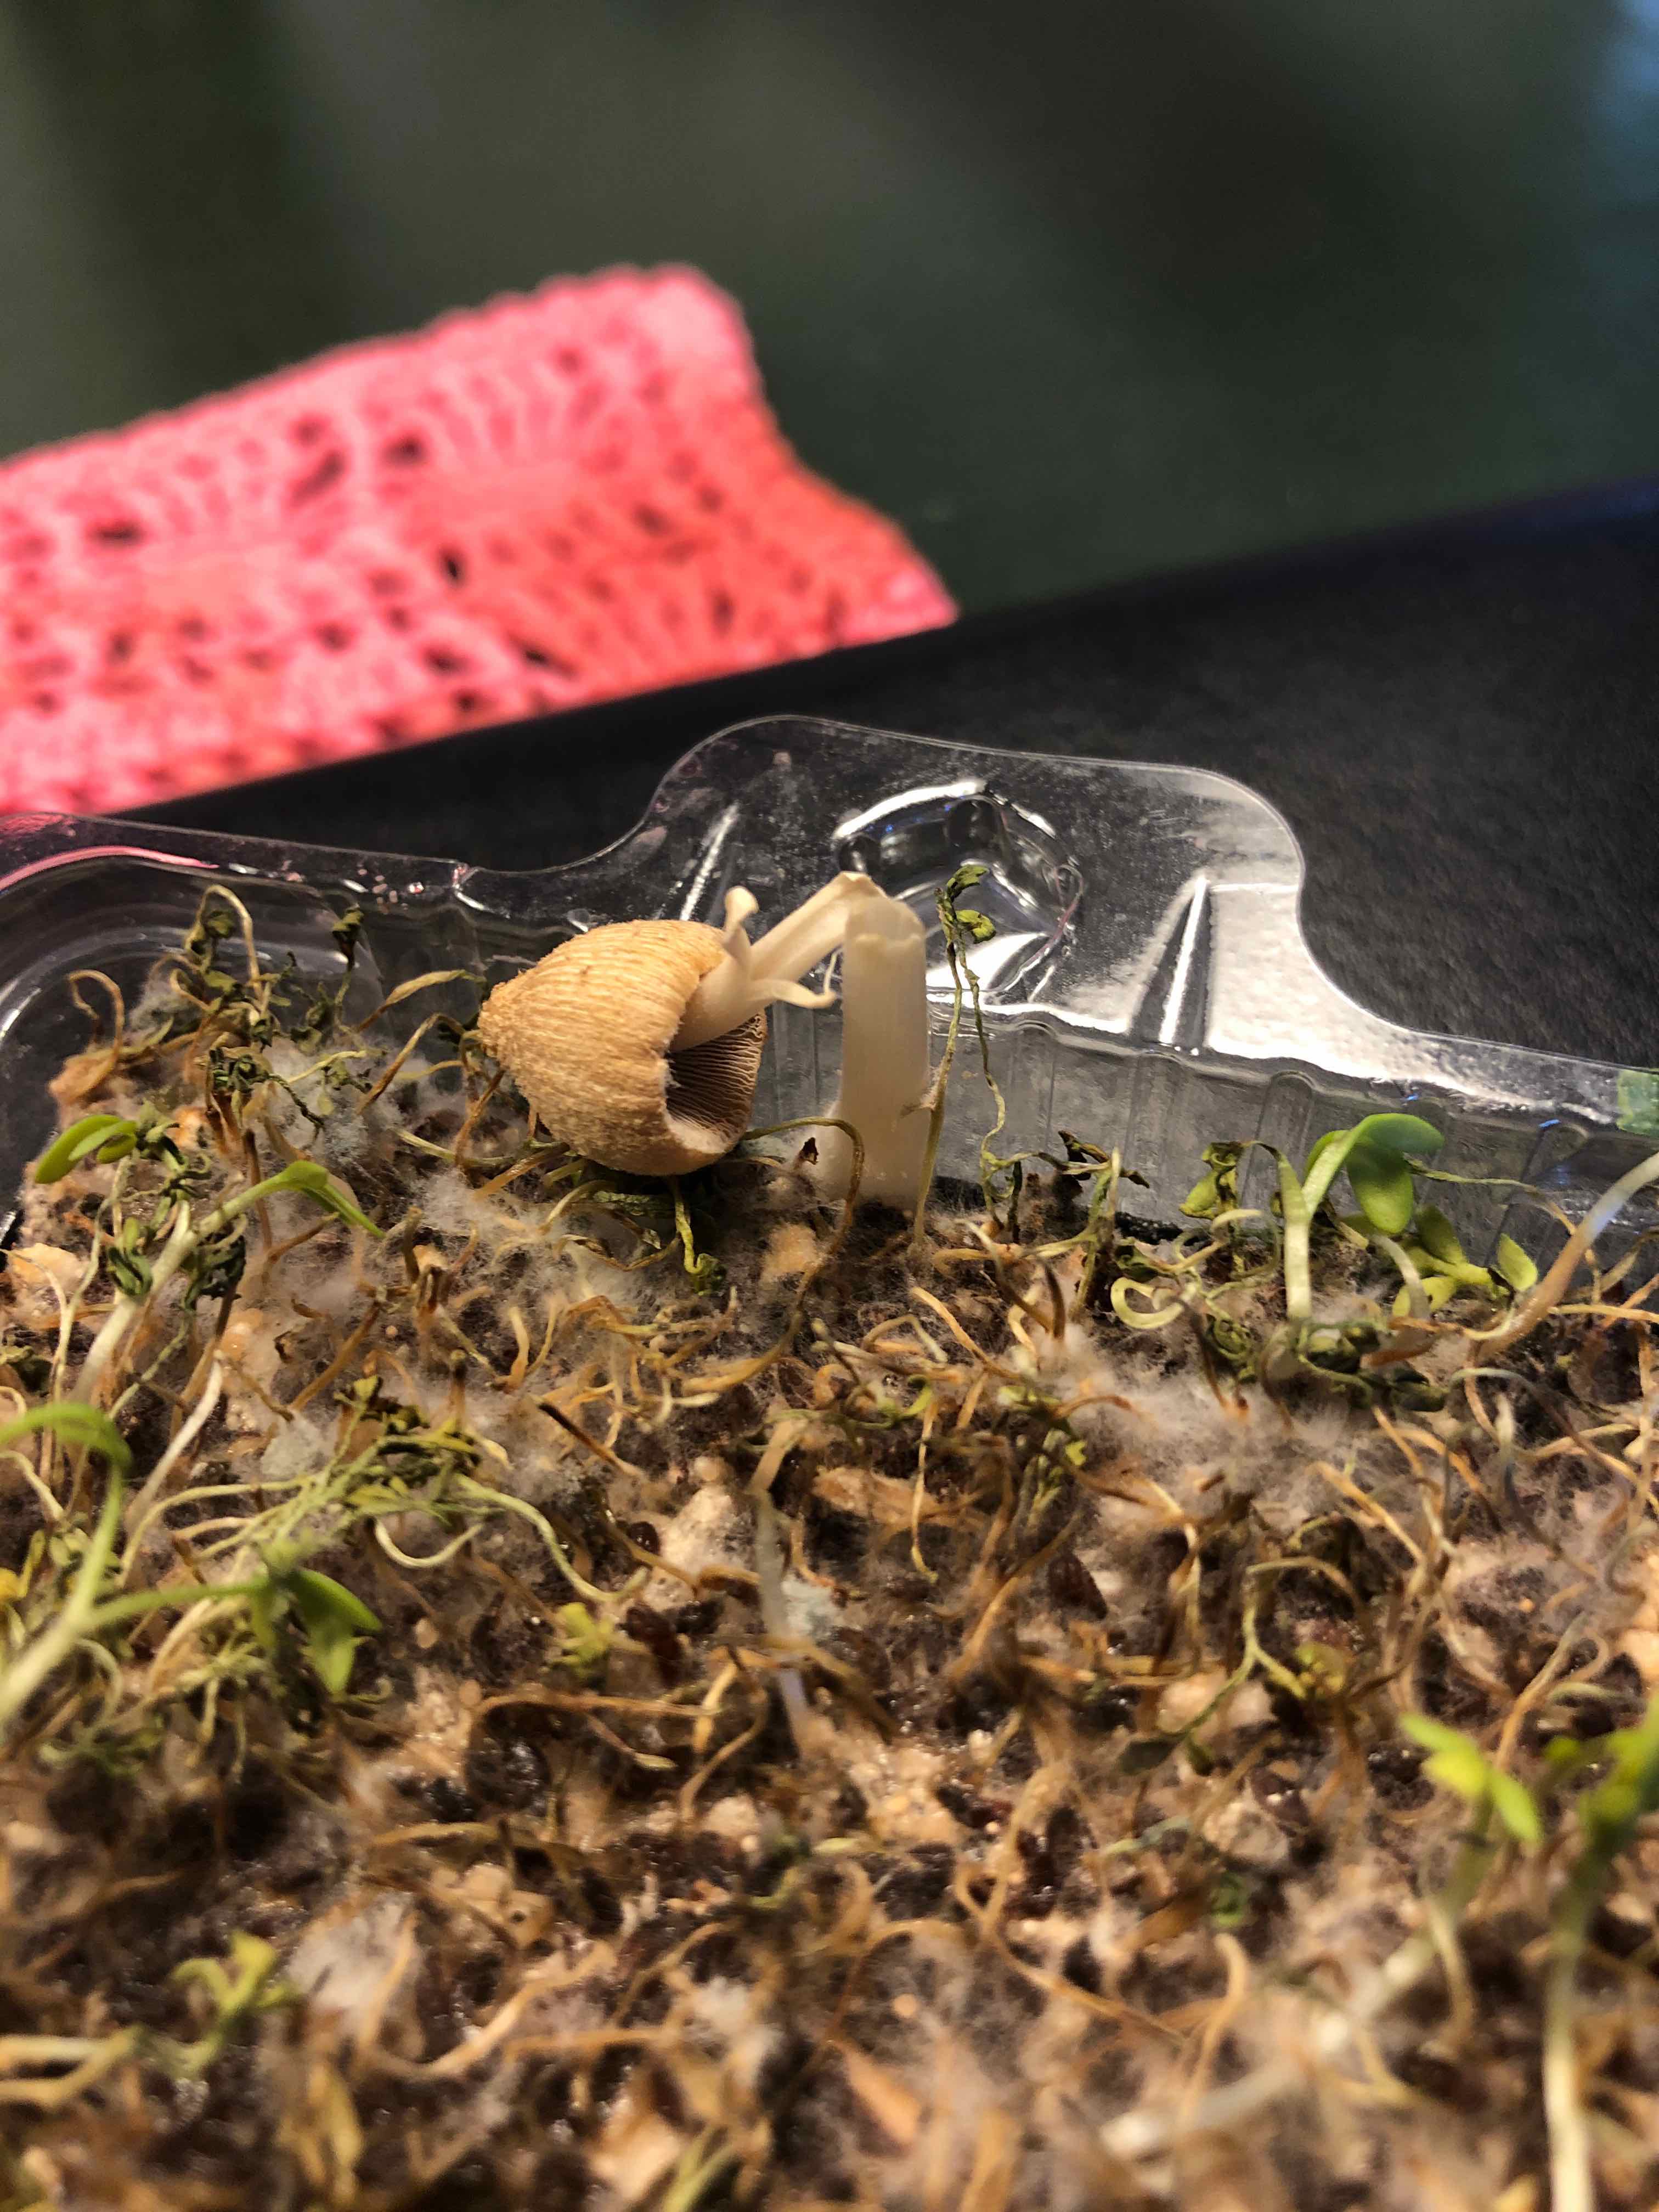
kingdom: Fungi
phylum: Basidiomycota
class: Agaricomycetes
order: Agaricales
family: Psathyrellaceae
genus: Coprinellus
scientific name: Coprinellus
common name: blækhat
